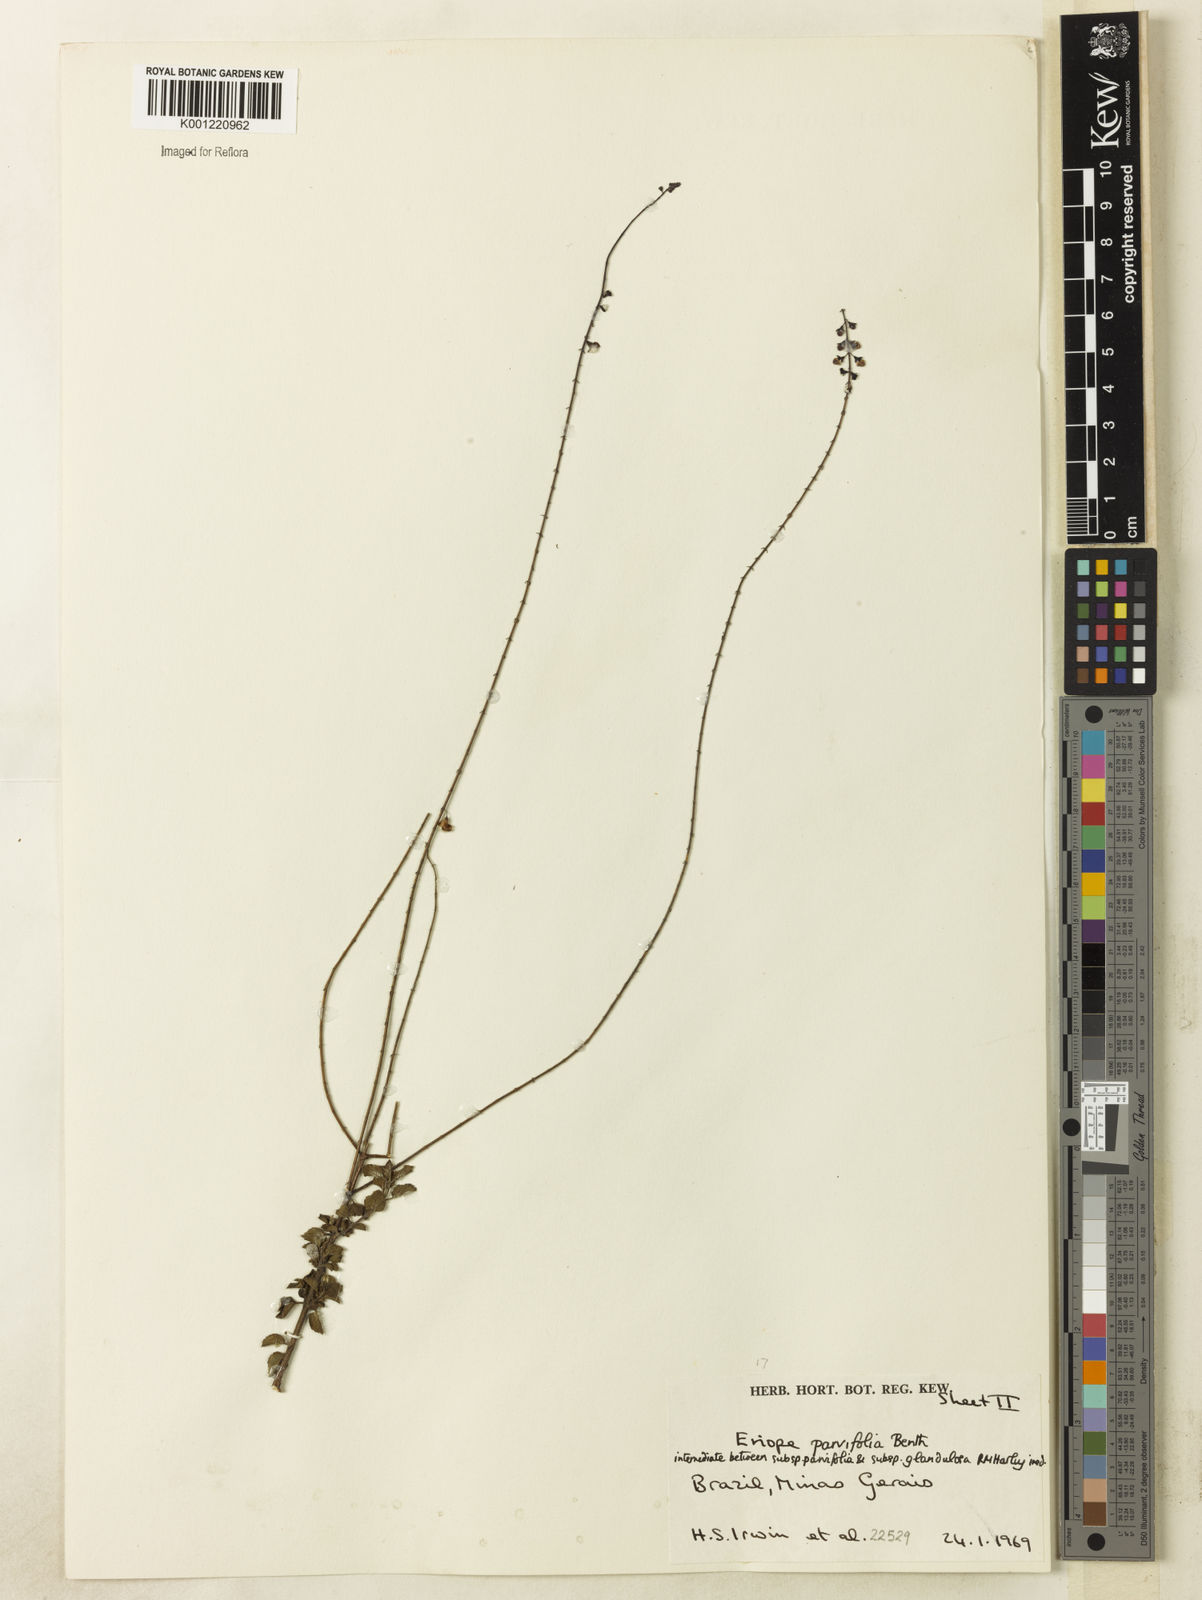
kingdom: Plantae
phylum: Tracheophyta
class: Magnoliopsida
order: Lamiales
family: Lamiaceae
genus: Eriope
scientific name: Eriope glandulosa
